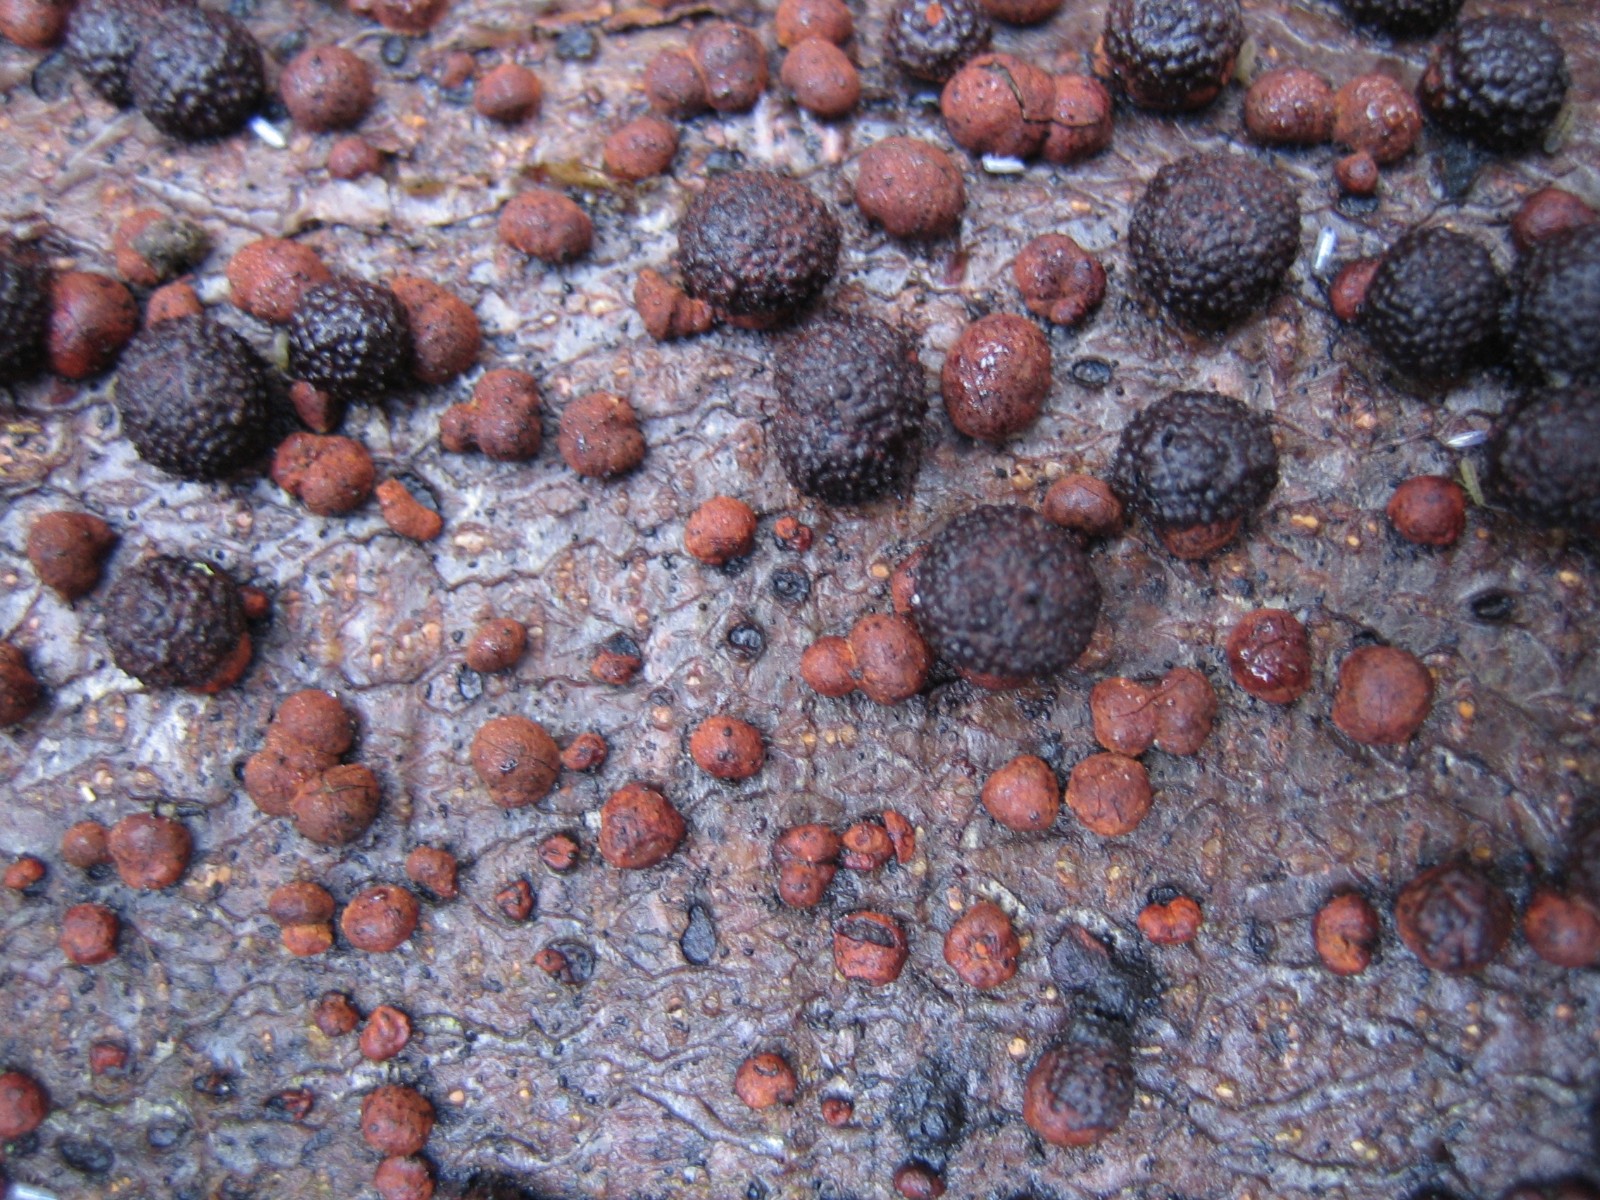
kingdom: Fungi
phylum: Ascomycota
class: Sordariomycetes
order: Xylariales
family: Hypoxylaceae
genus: Hypoxylon
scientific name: Hypoxylon fragiforme
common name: kuljordbær
